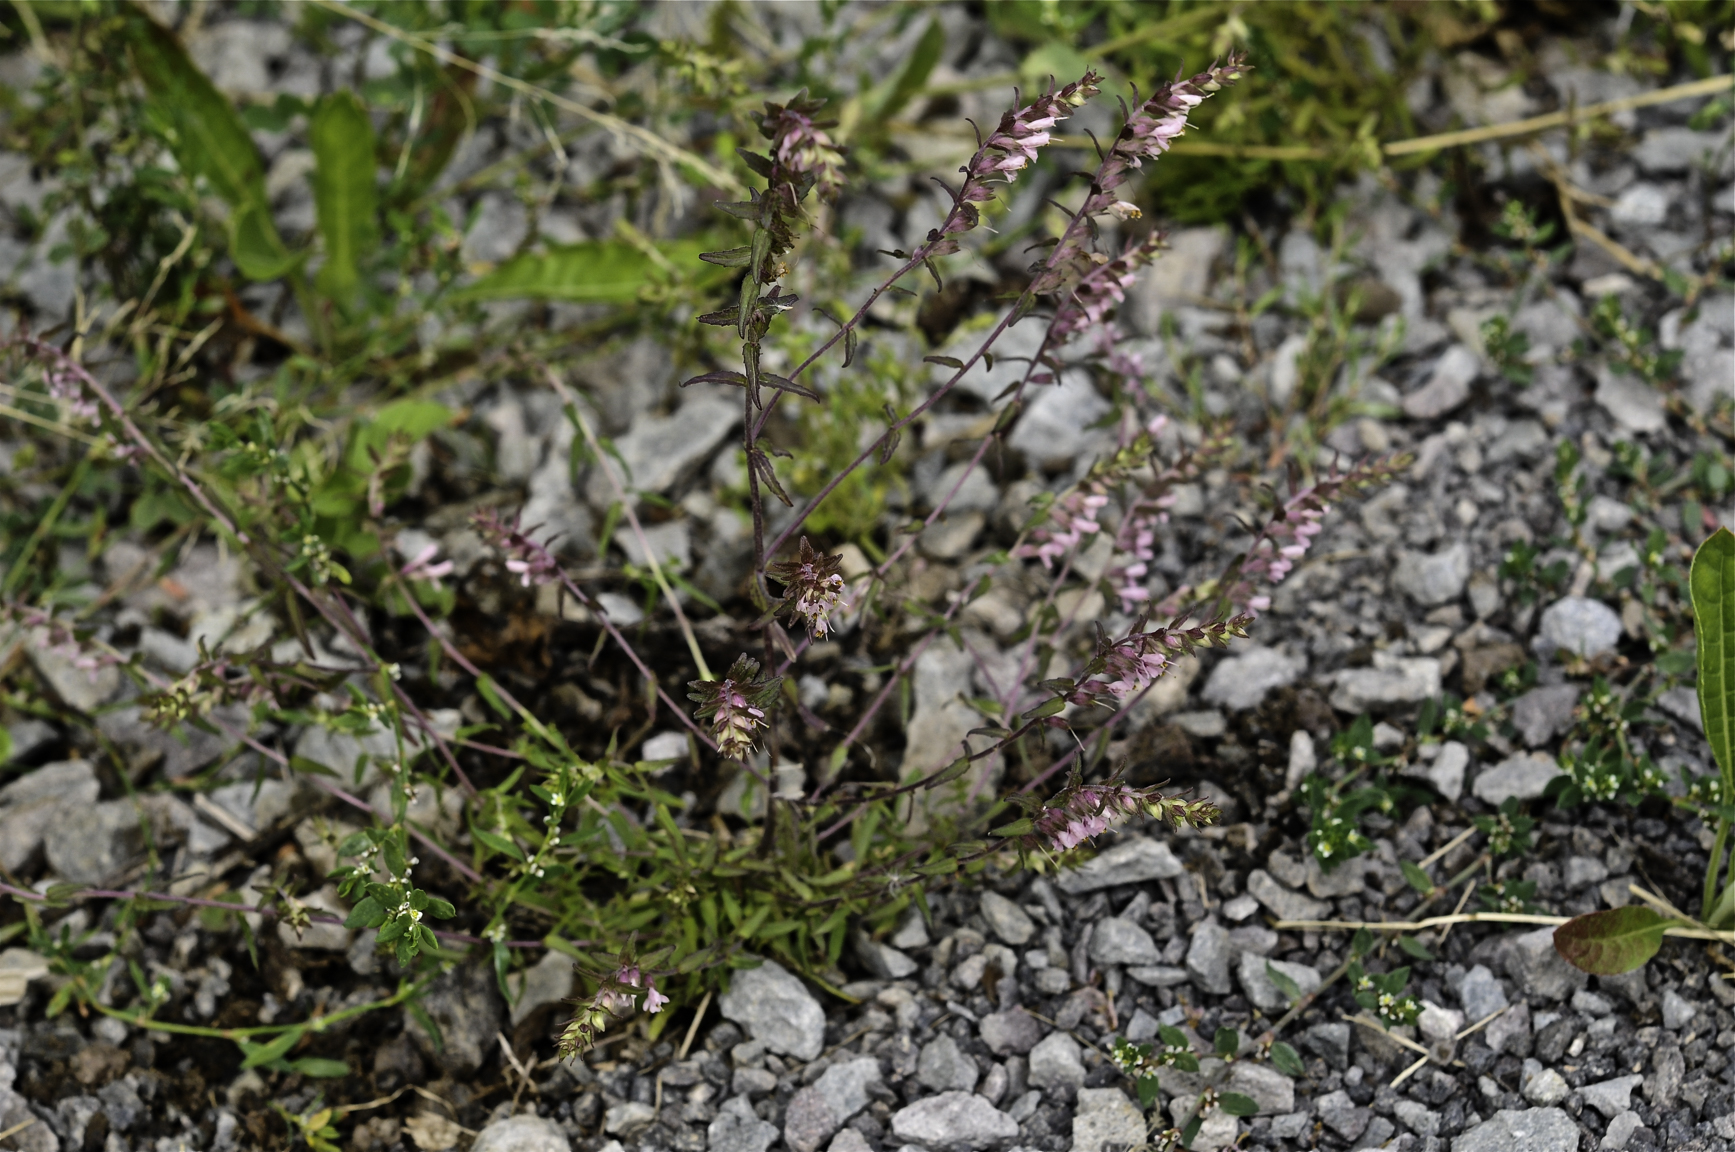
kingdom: Plantae
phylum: Tracheophyta
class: Magnoliopsida
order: Lamiales
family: Orobanchaceae
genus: Odontites
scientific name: Odontites vulgaris
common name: Broomrape
